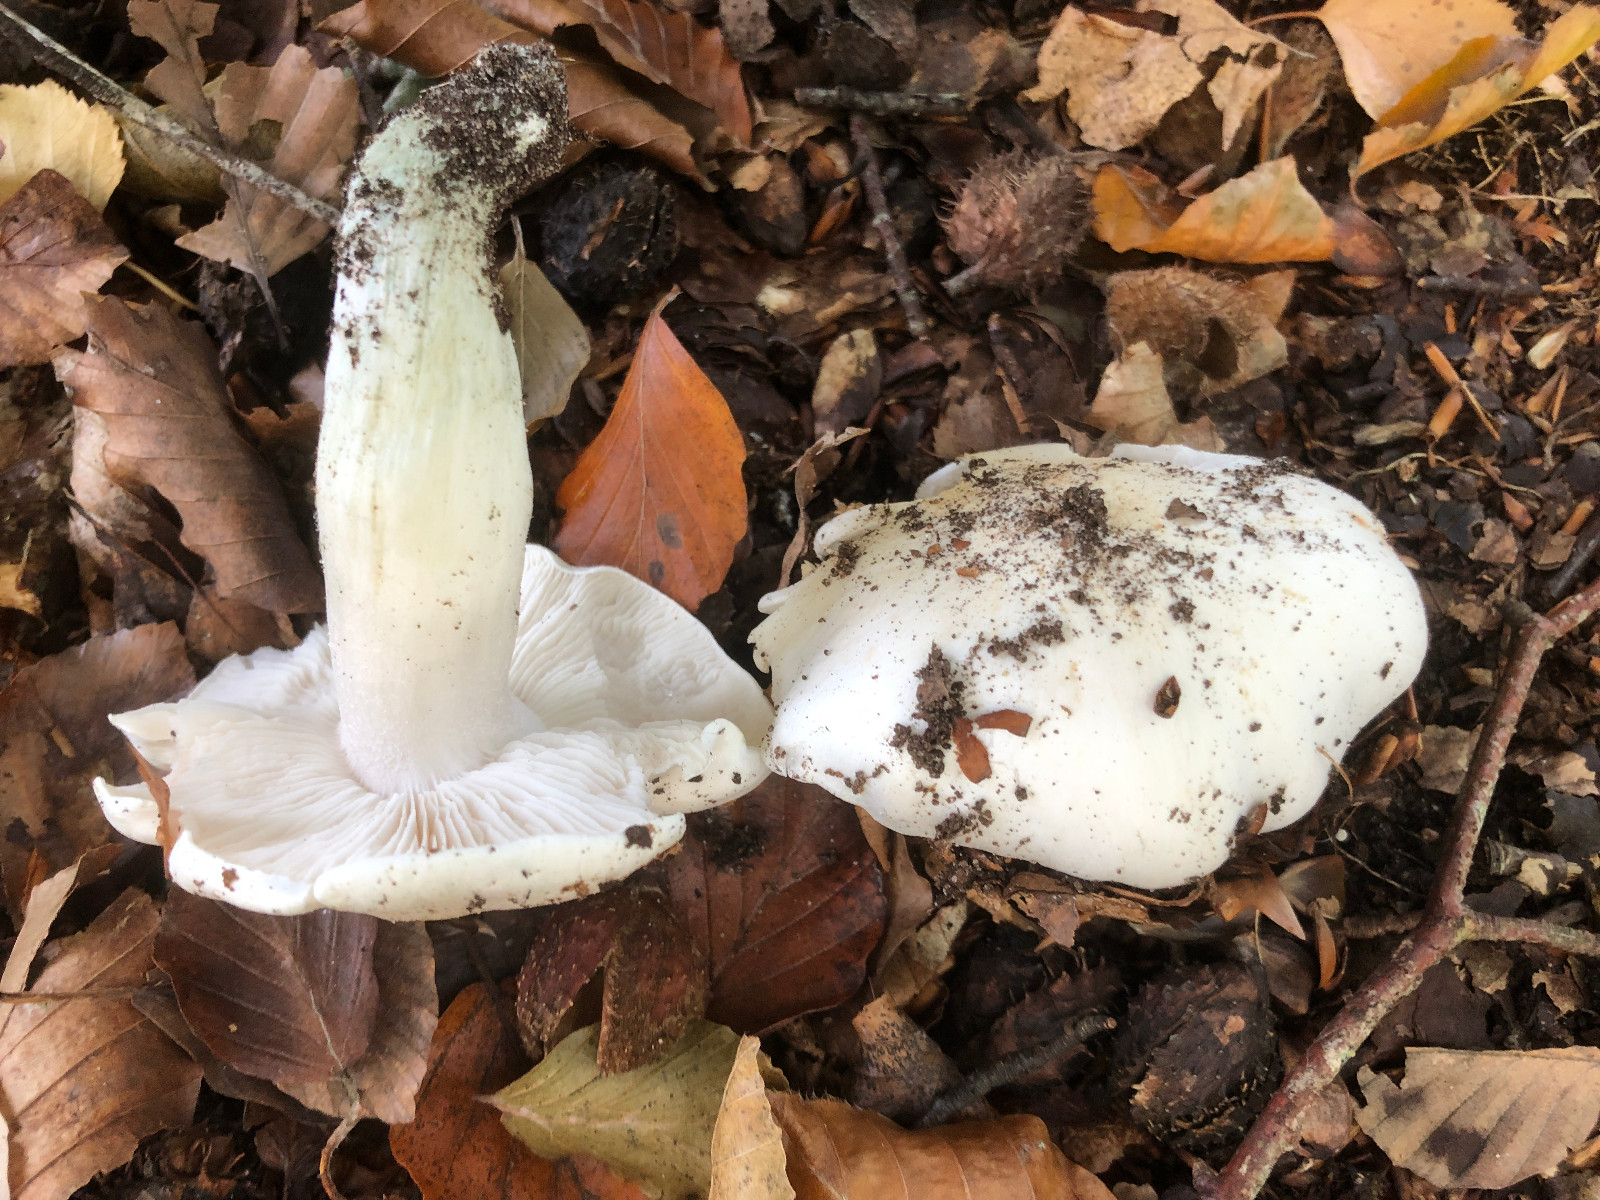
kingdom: Fungi
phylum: Basidiomycota
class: Agaricomycetes
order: Agaricales
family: Tricholomataceae
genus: Tricholoma
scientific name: Tricholoma columbetta
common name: silke-ridderhat
